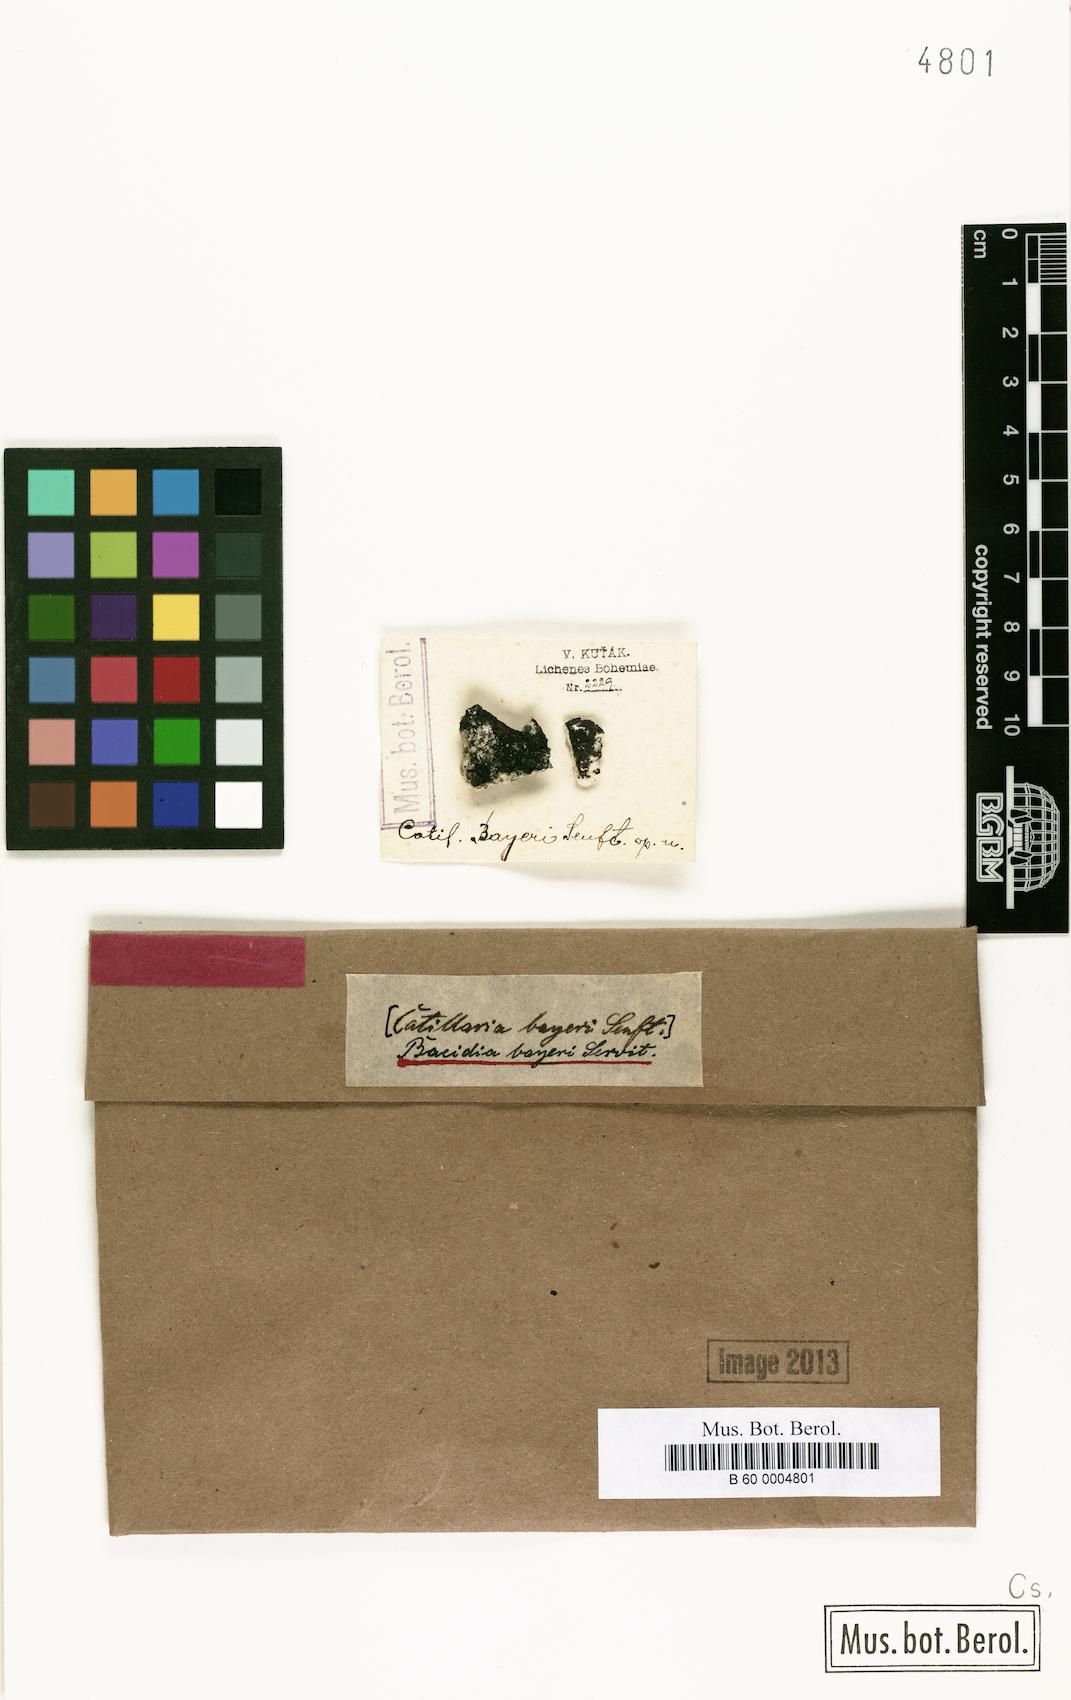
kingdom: Fungi
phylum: Ascomycota
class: Lecanoromycetes
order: Lecanorales
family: Ramalinaceae
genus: Bacidia
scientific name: Bacidia
